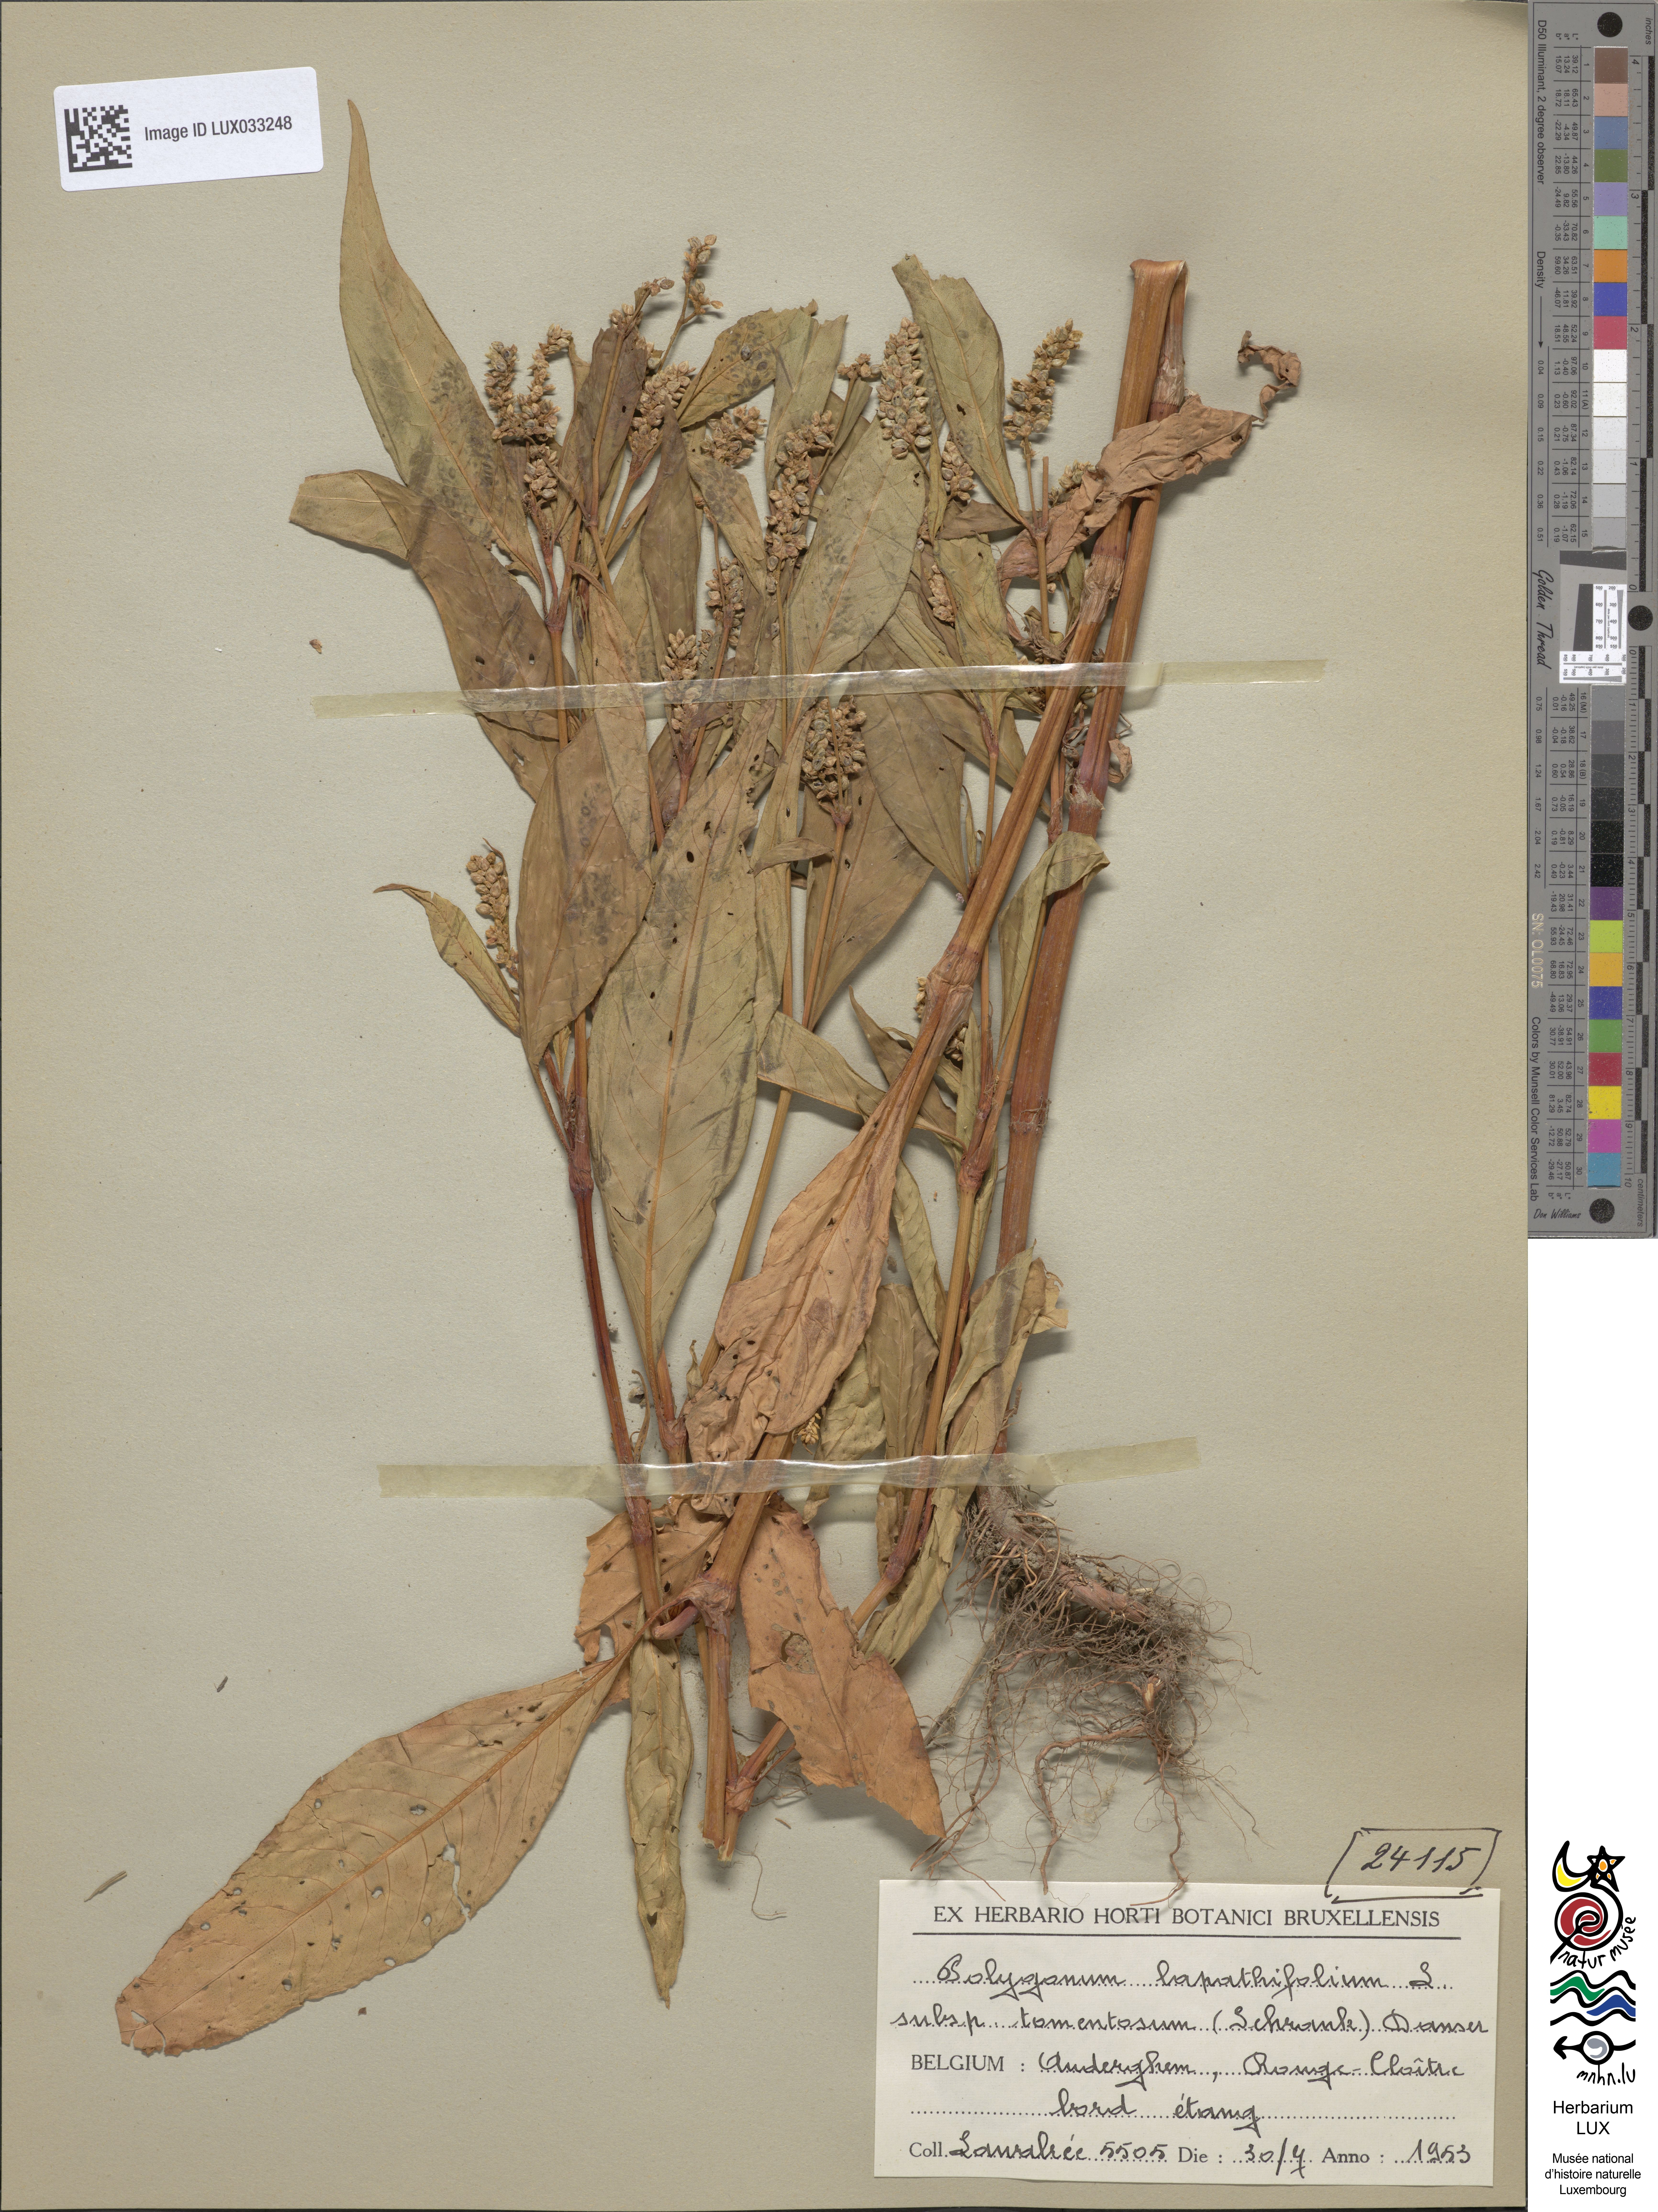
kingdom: Plantae
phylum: Tracheophyta
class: Magnoliopsida
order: Caryophyllales
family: Polygonaceae
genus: Persicaria
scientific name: Persicaria lapathifolia
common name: Curlytop knotweed
